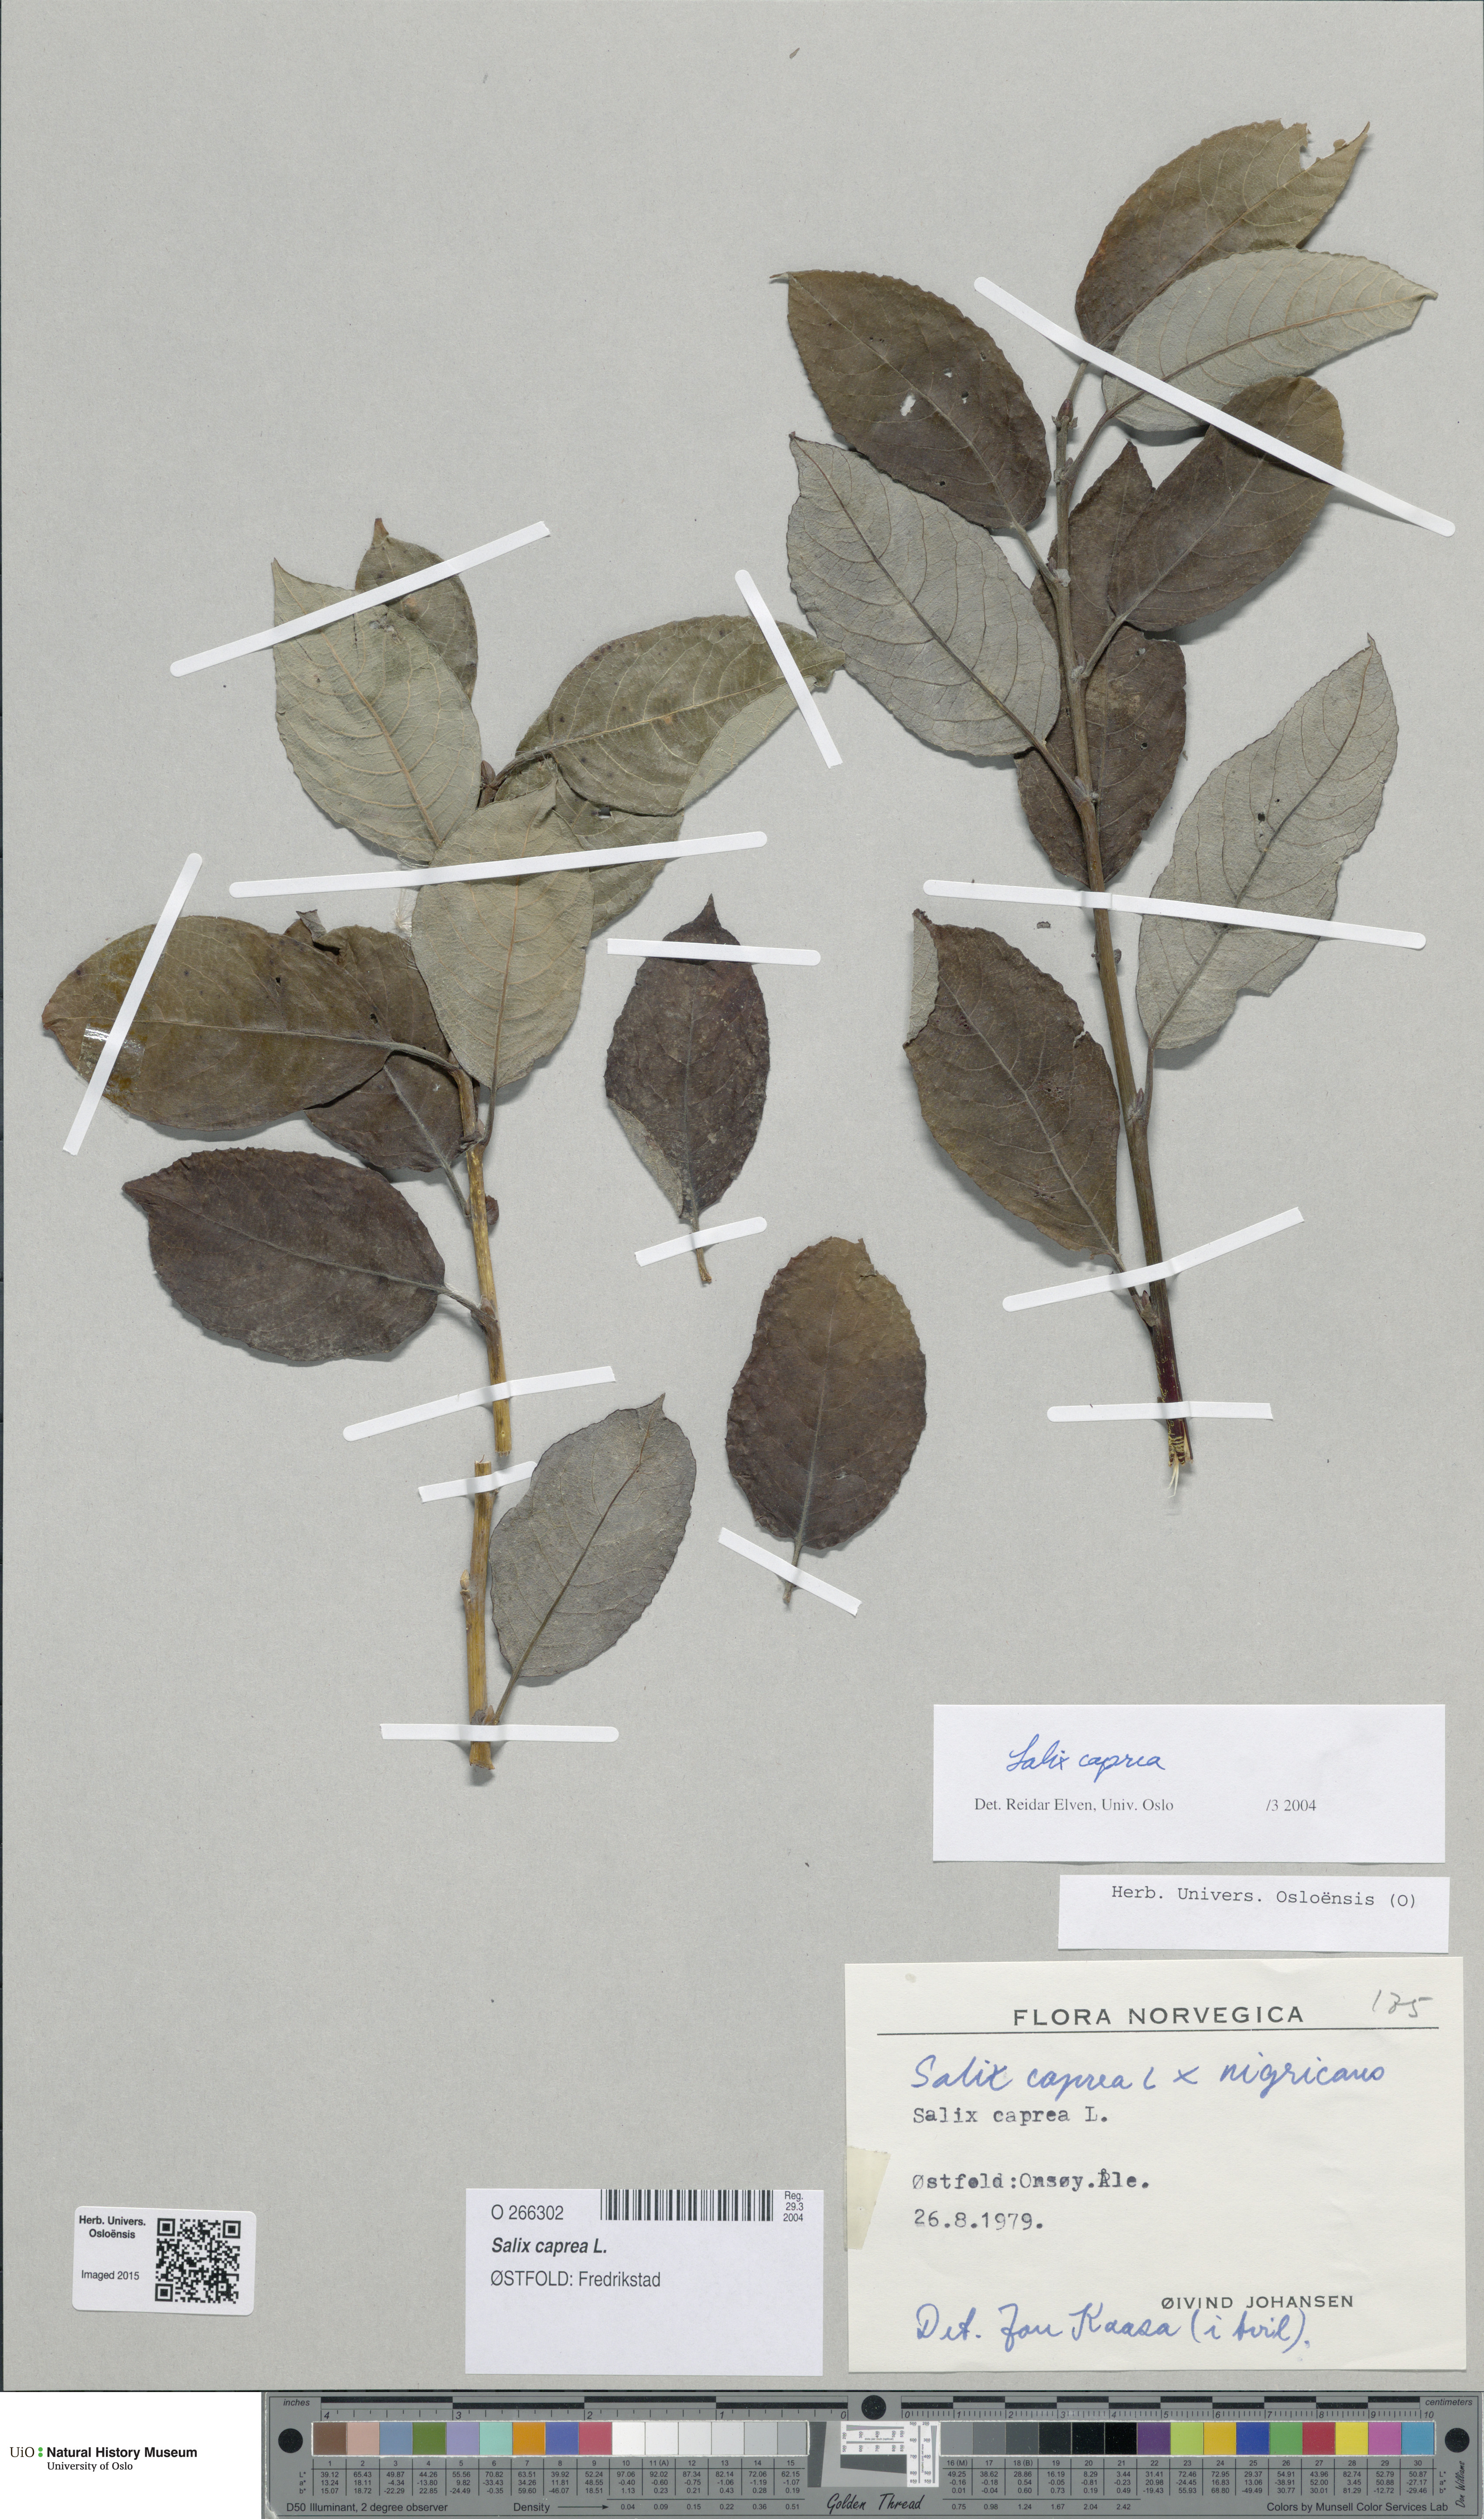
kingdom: Plantae
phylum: Tracheophyta
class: Magnoliopsida
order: Malpighiales
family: Salicaceae
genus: Salix
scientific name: Salix caprea
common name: Goat willow
